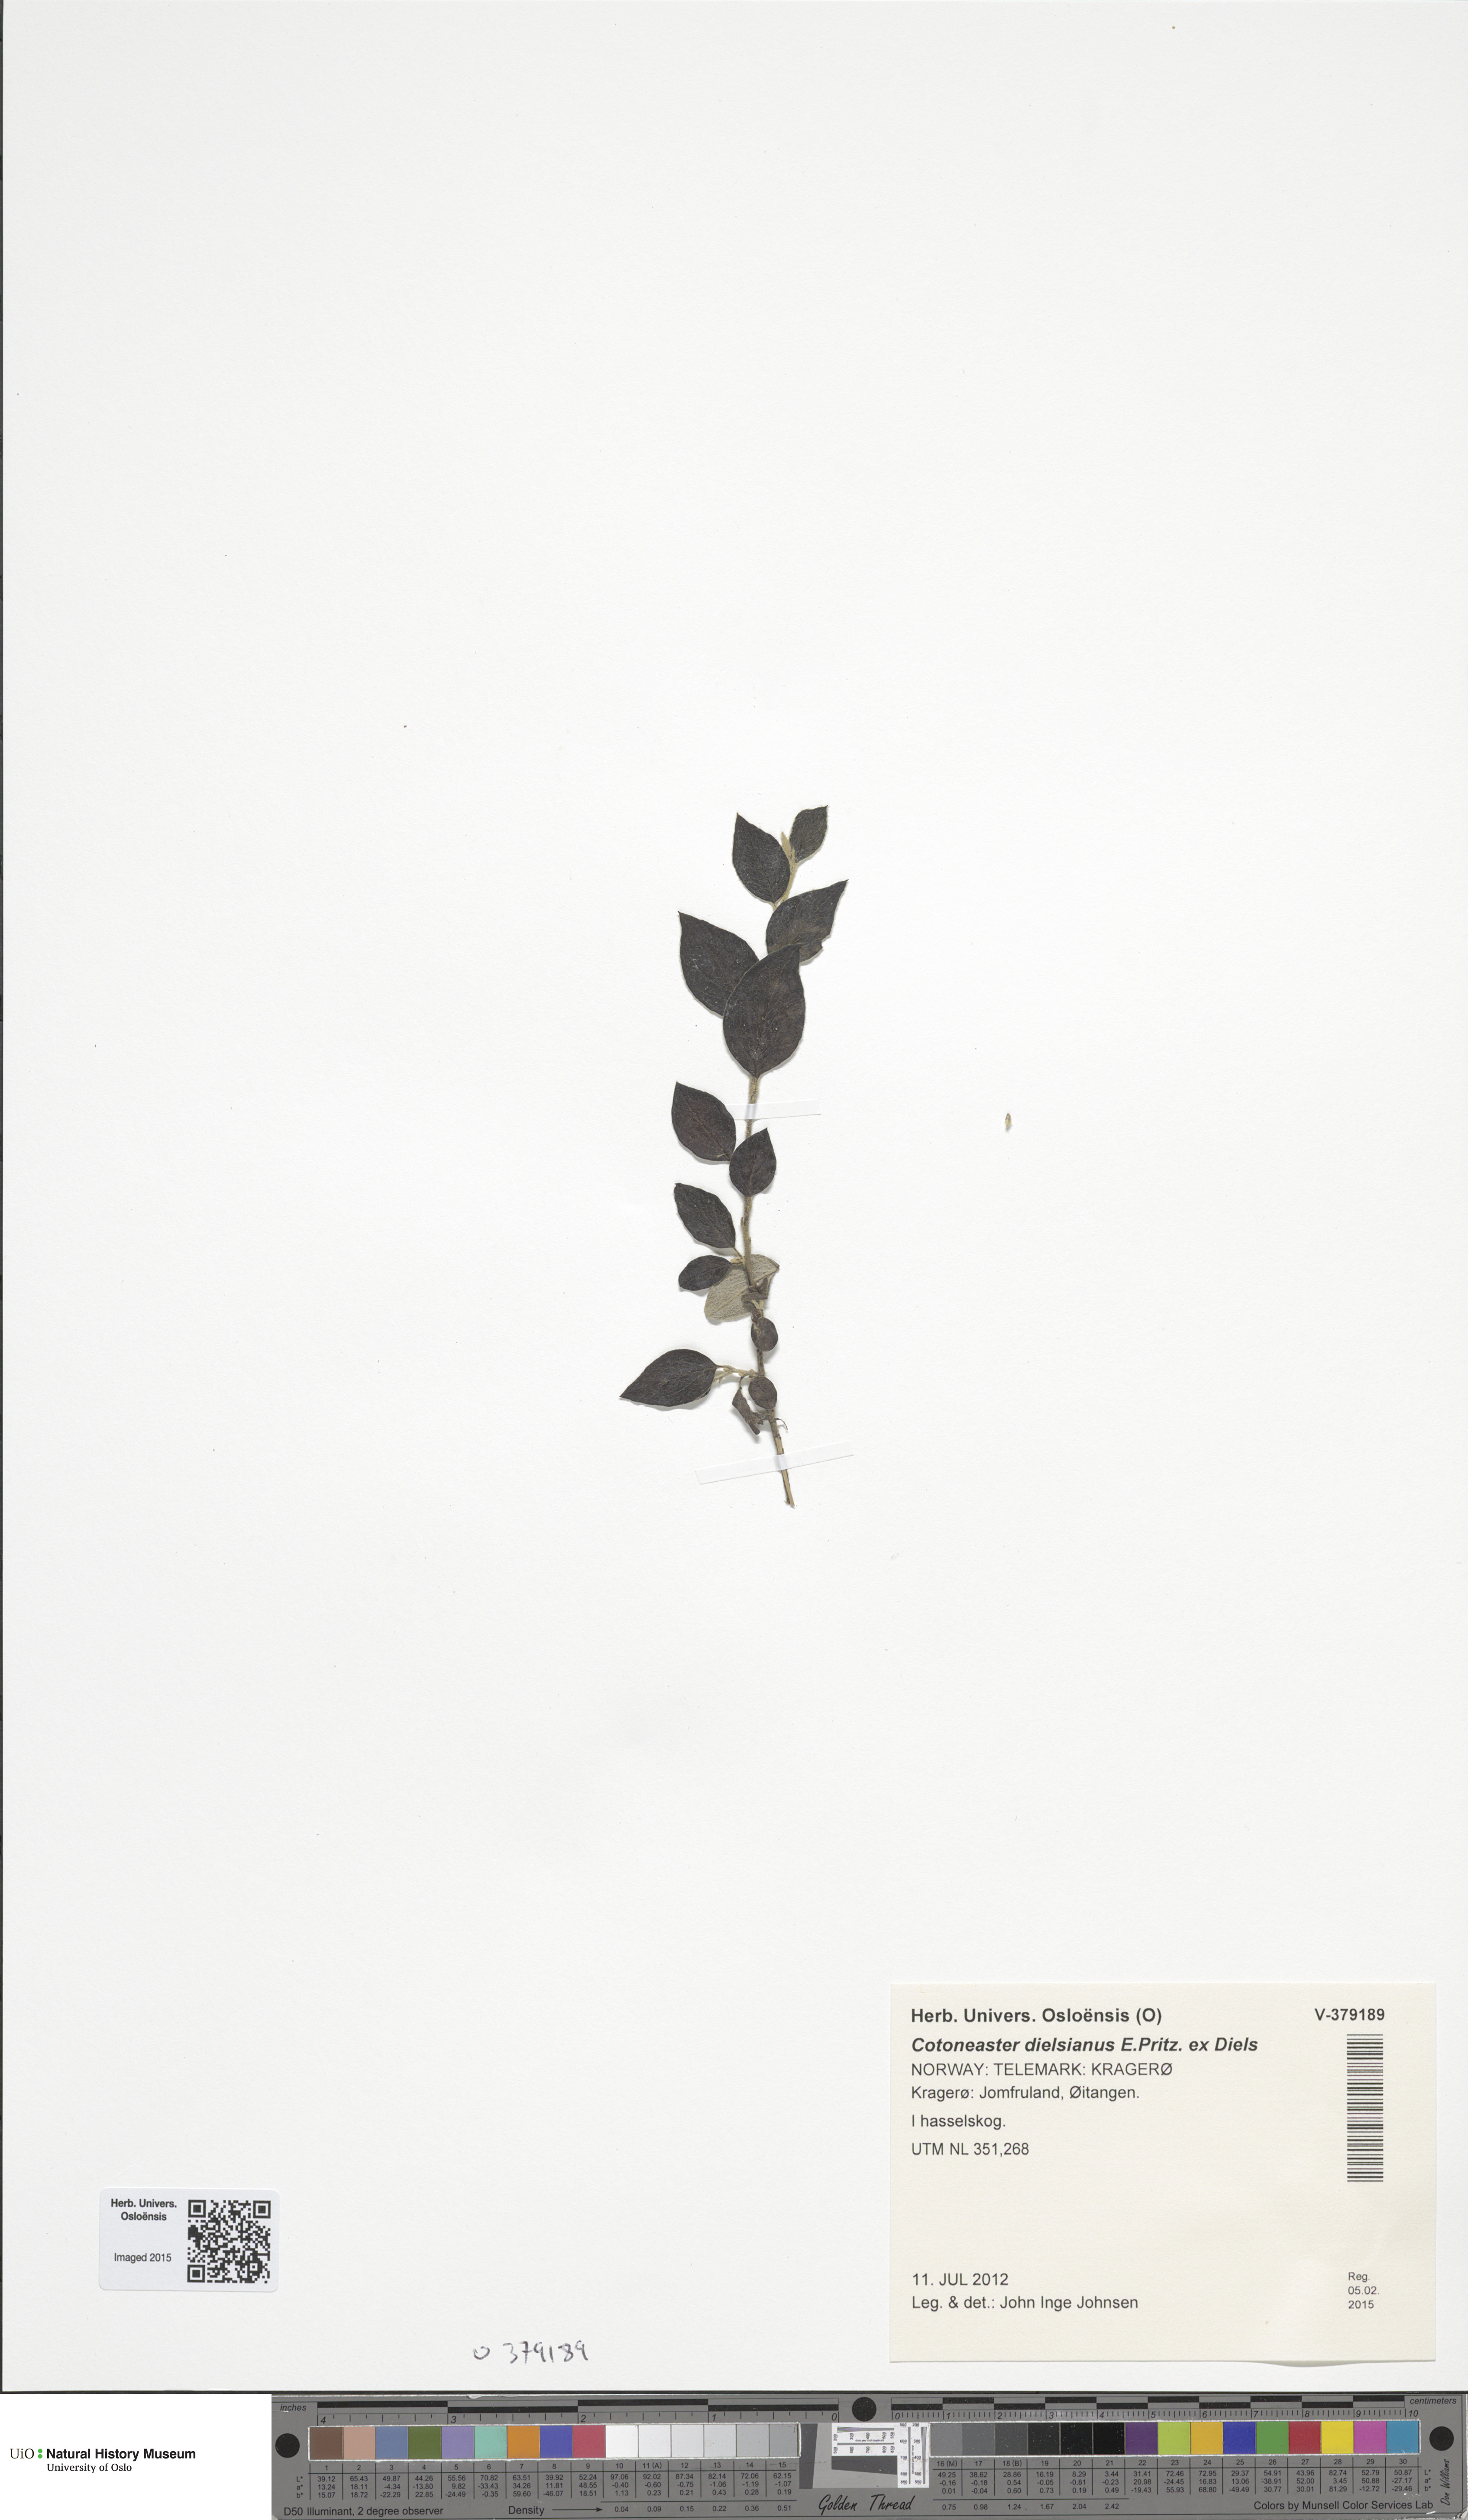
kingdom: Plantae
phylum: Tracheophyta
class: Magnoliopsida
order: Rosales
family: Rosaceae
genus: Cotoneaster
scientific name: Cotoneaster dielsianus
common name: Diels's cotoneaster
